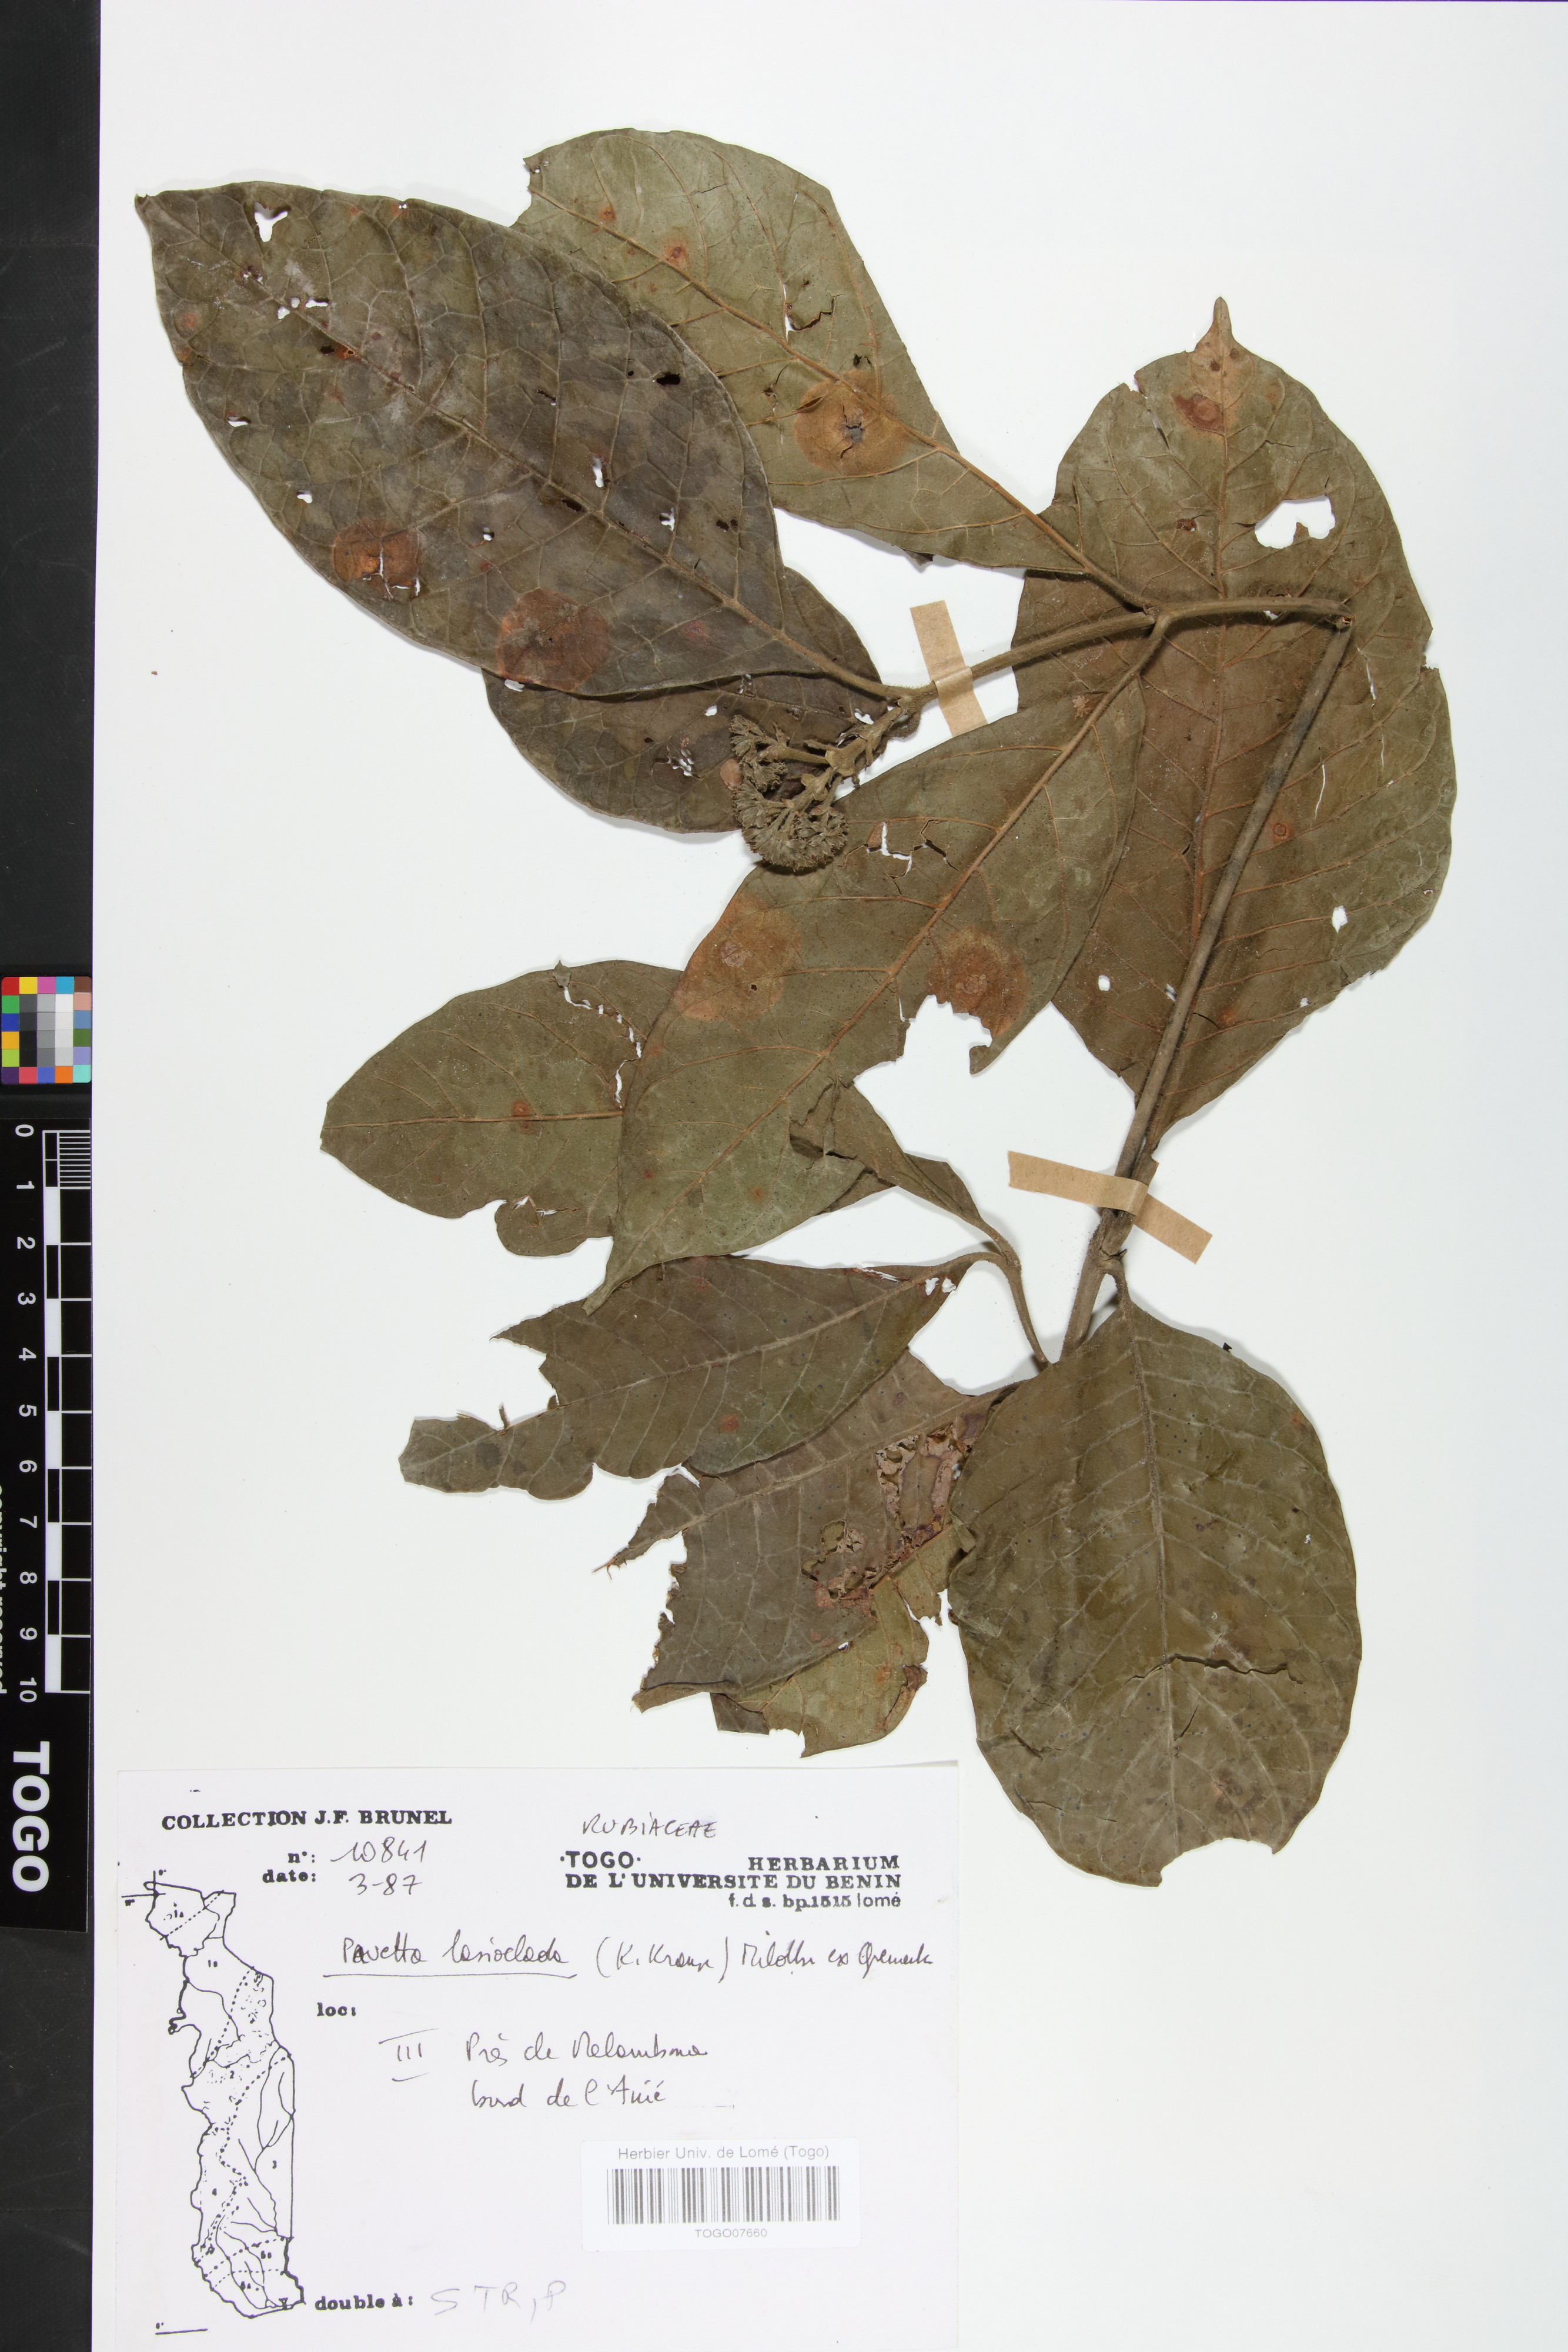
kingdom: Plantae
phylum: Tracheophyta
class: Magnoliopsida
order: Gentianales
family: Rubiaceae
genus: Pavetta
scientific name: Pavetta lasioclada
